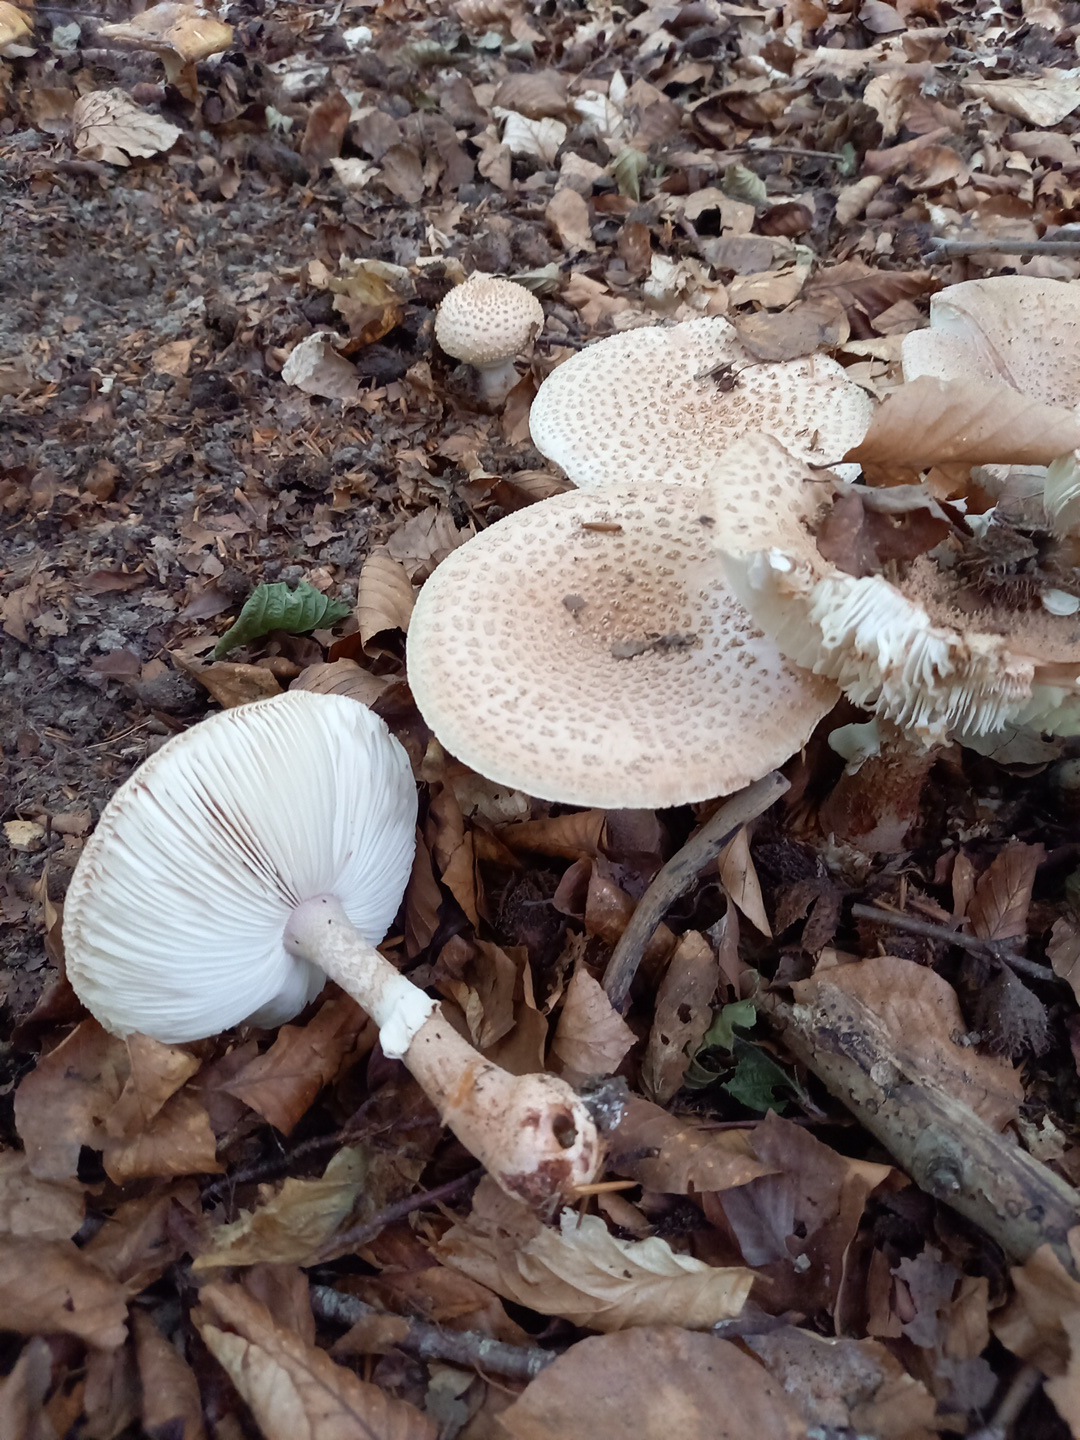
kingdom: Fungi
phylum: Basidiomycota
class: Agaricomycetes
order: Agaricales
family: Amanitaceae
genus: Amanita
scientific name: Amanita rubescens
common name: rødmende fluesvamp
